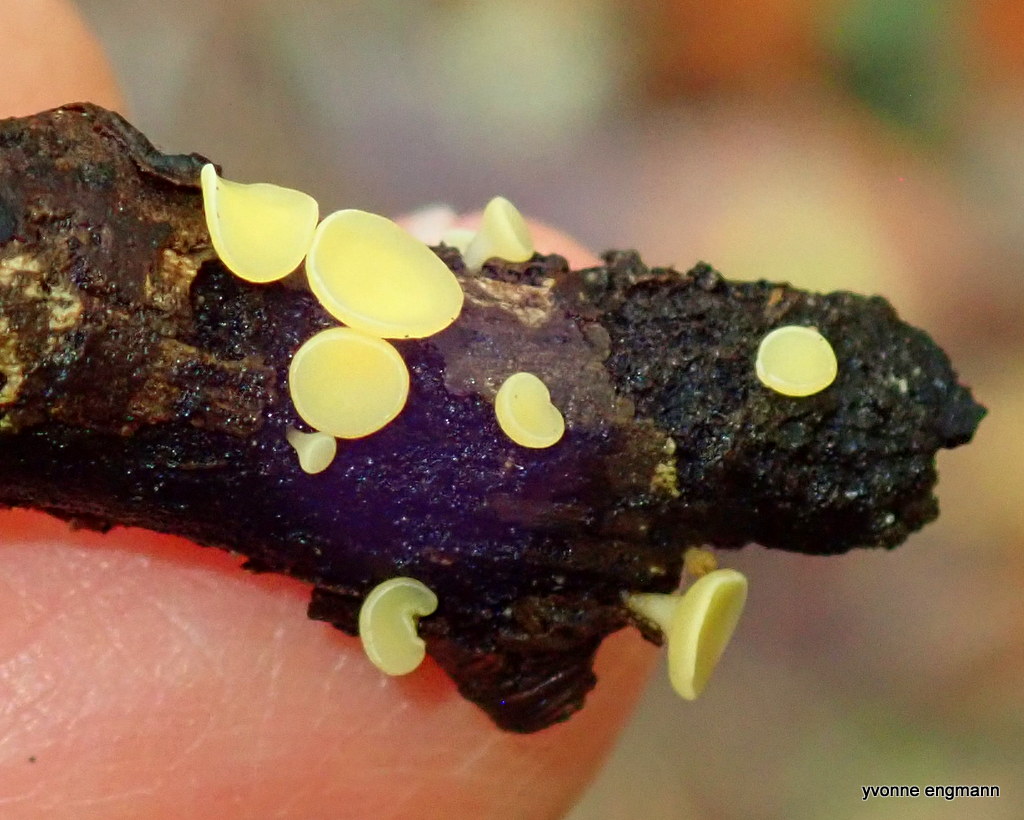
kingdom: Fungi
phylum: Ascomycota
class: Leotiomycetes
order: Helotiales
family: Helotiaceae
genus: Hymenoscyphus
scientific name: Hymenoscyphus
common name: stilkskive
